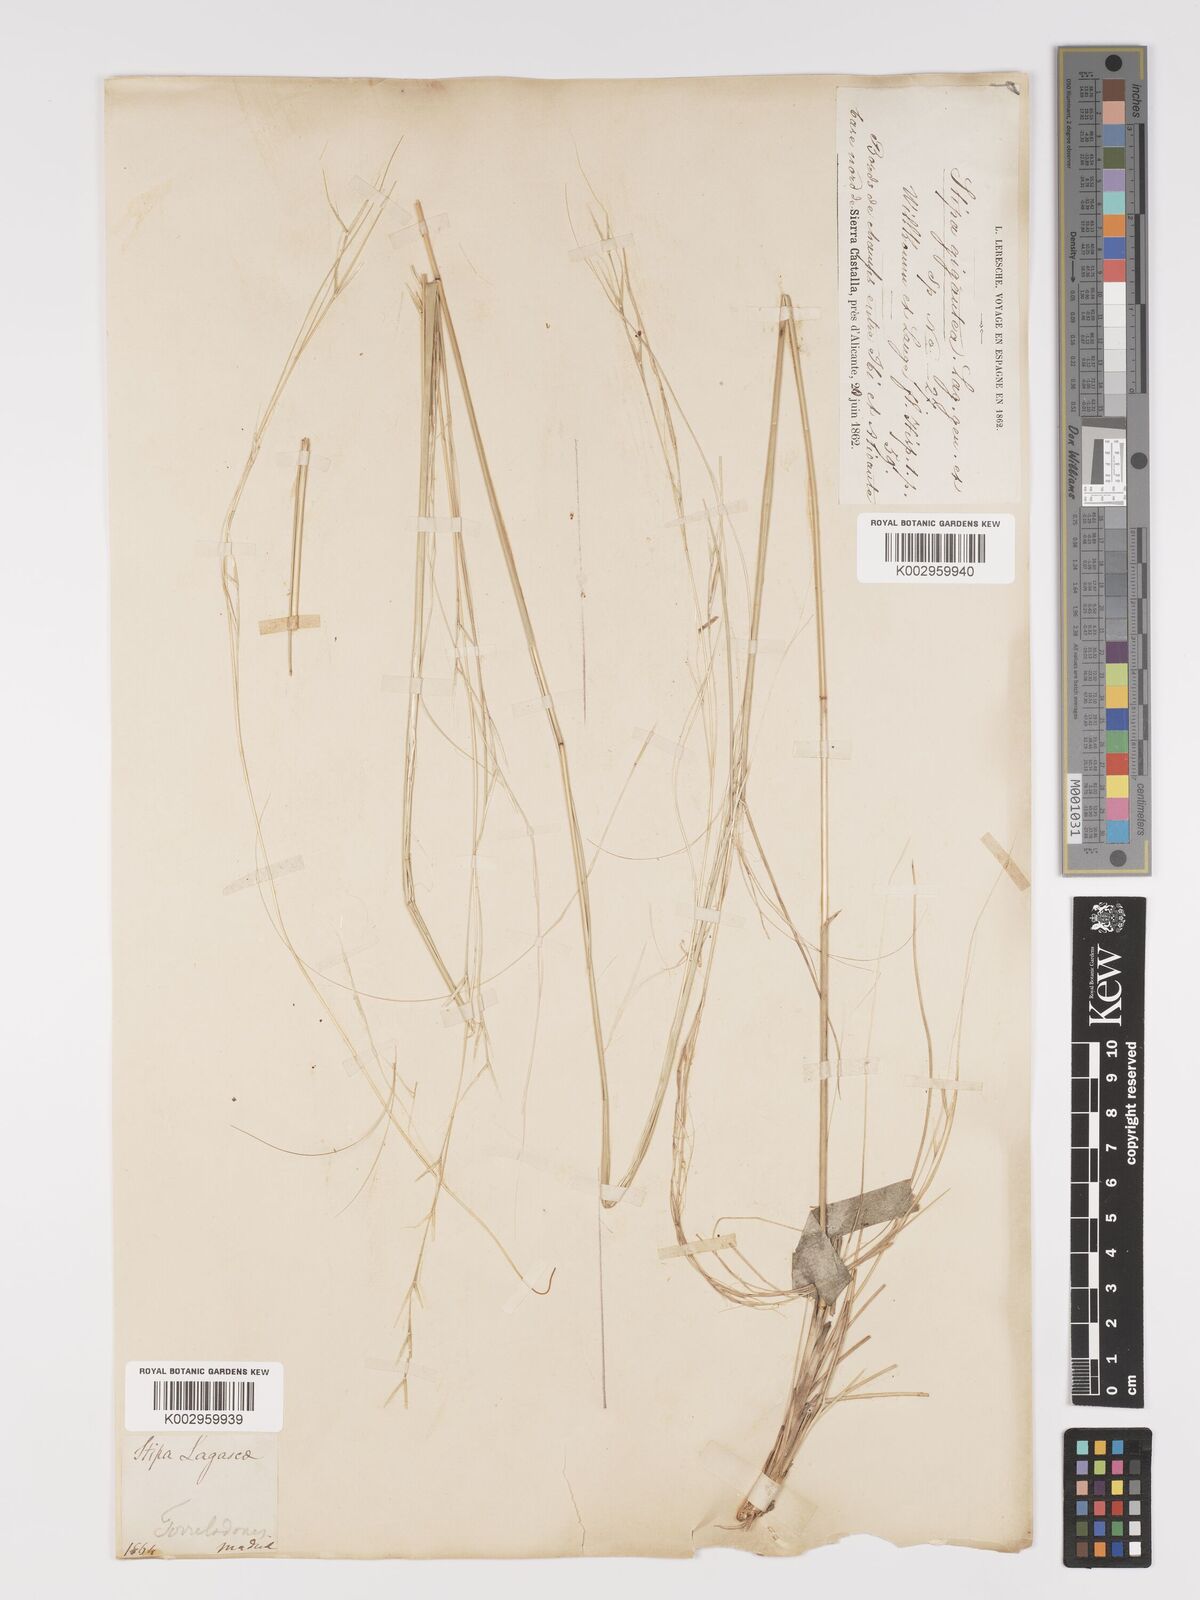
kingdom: Plantae
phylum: Tracheophyta
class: Liliopsida
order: Poales
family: Poaceae
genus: Stipa
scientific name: Stipa
